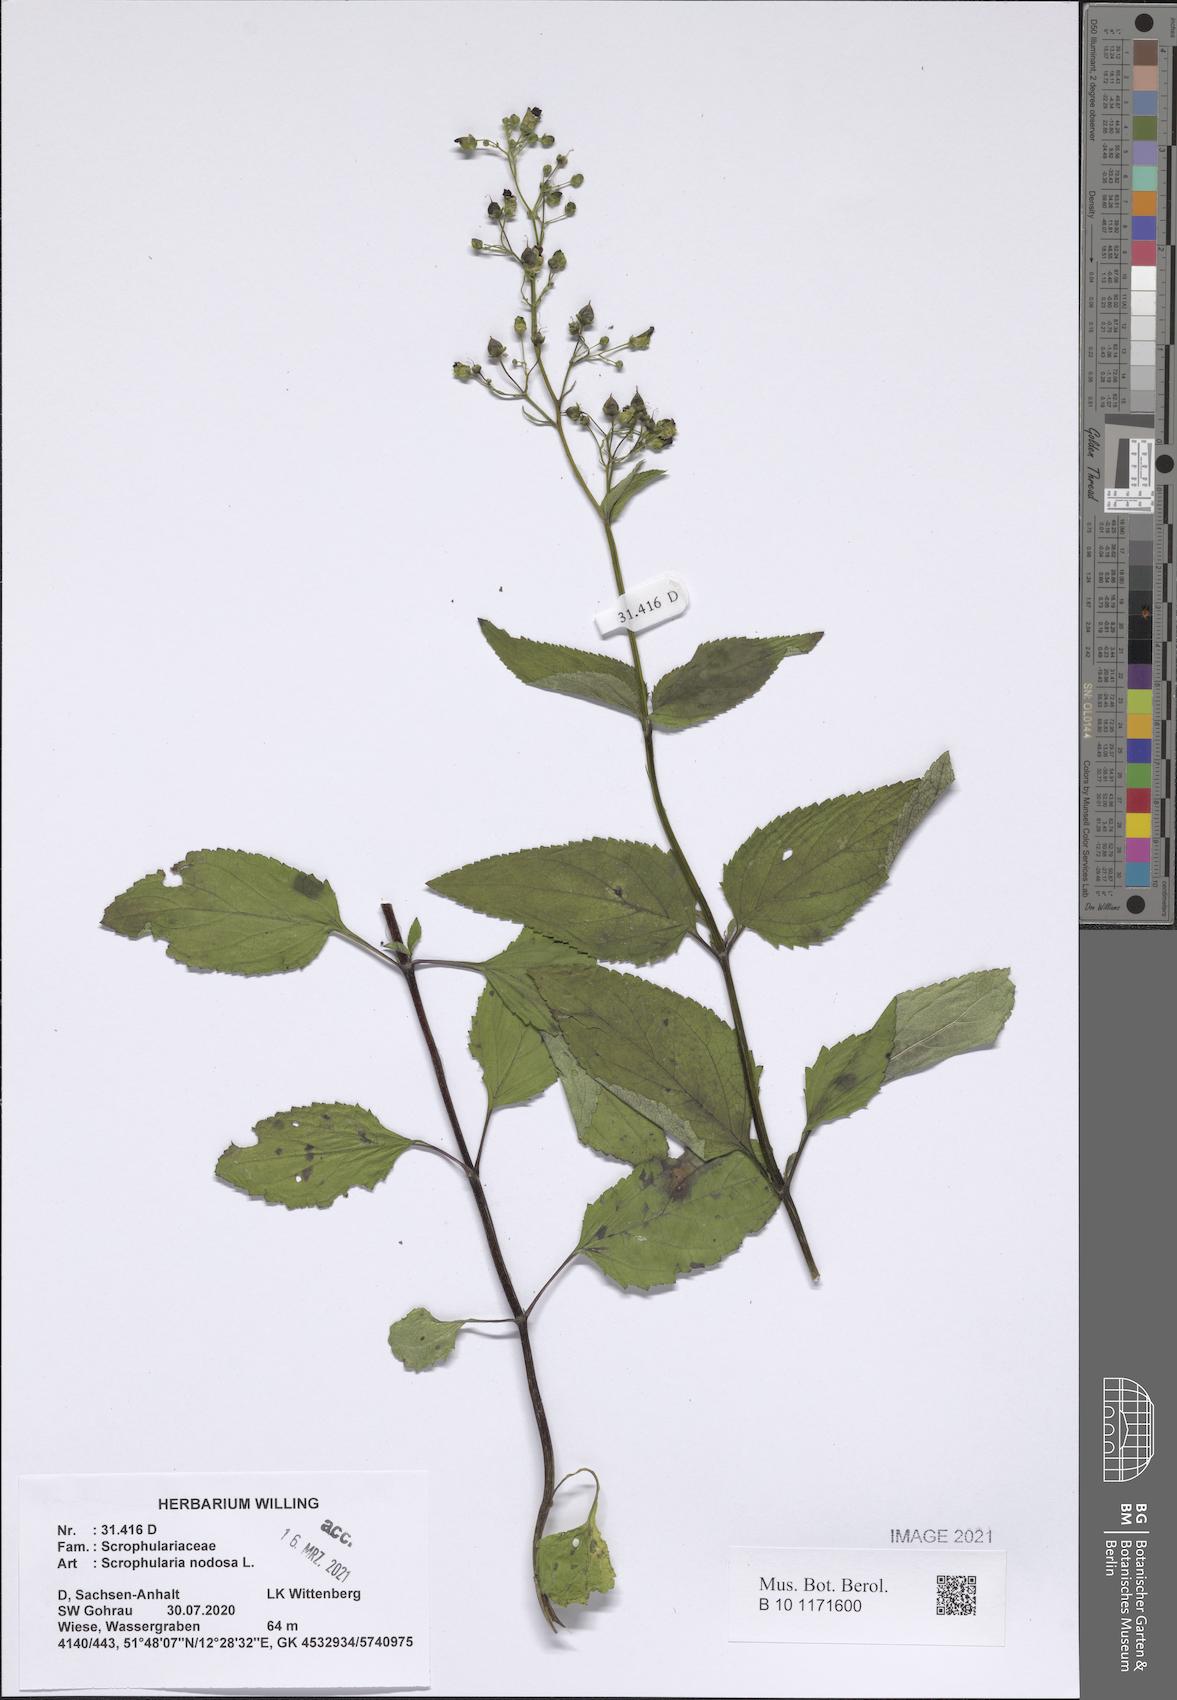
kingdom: Plantae
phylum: Tracheophyta
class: Magnoliopsida
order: Lamiales
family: Scrophulariaceae
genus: Scrophularia
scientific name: Scrophularia nodosa
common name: Common figwort
